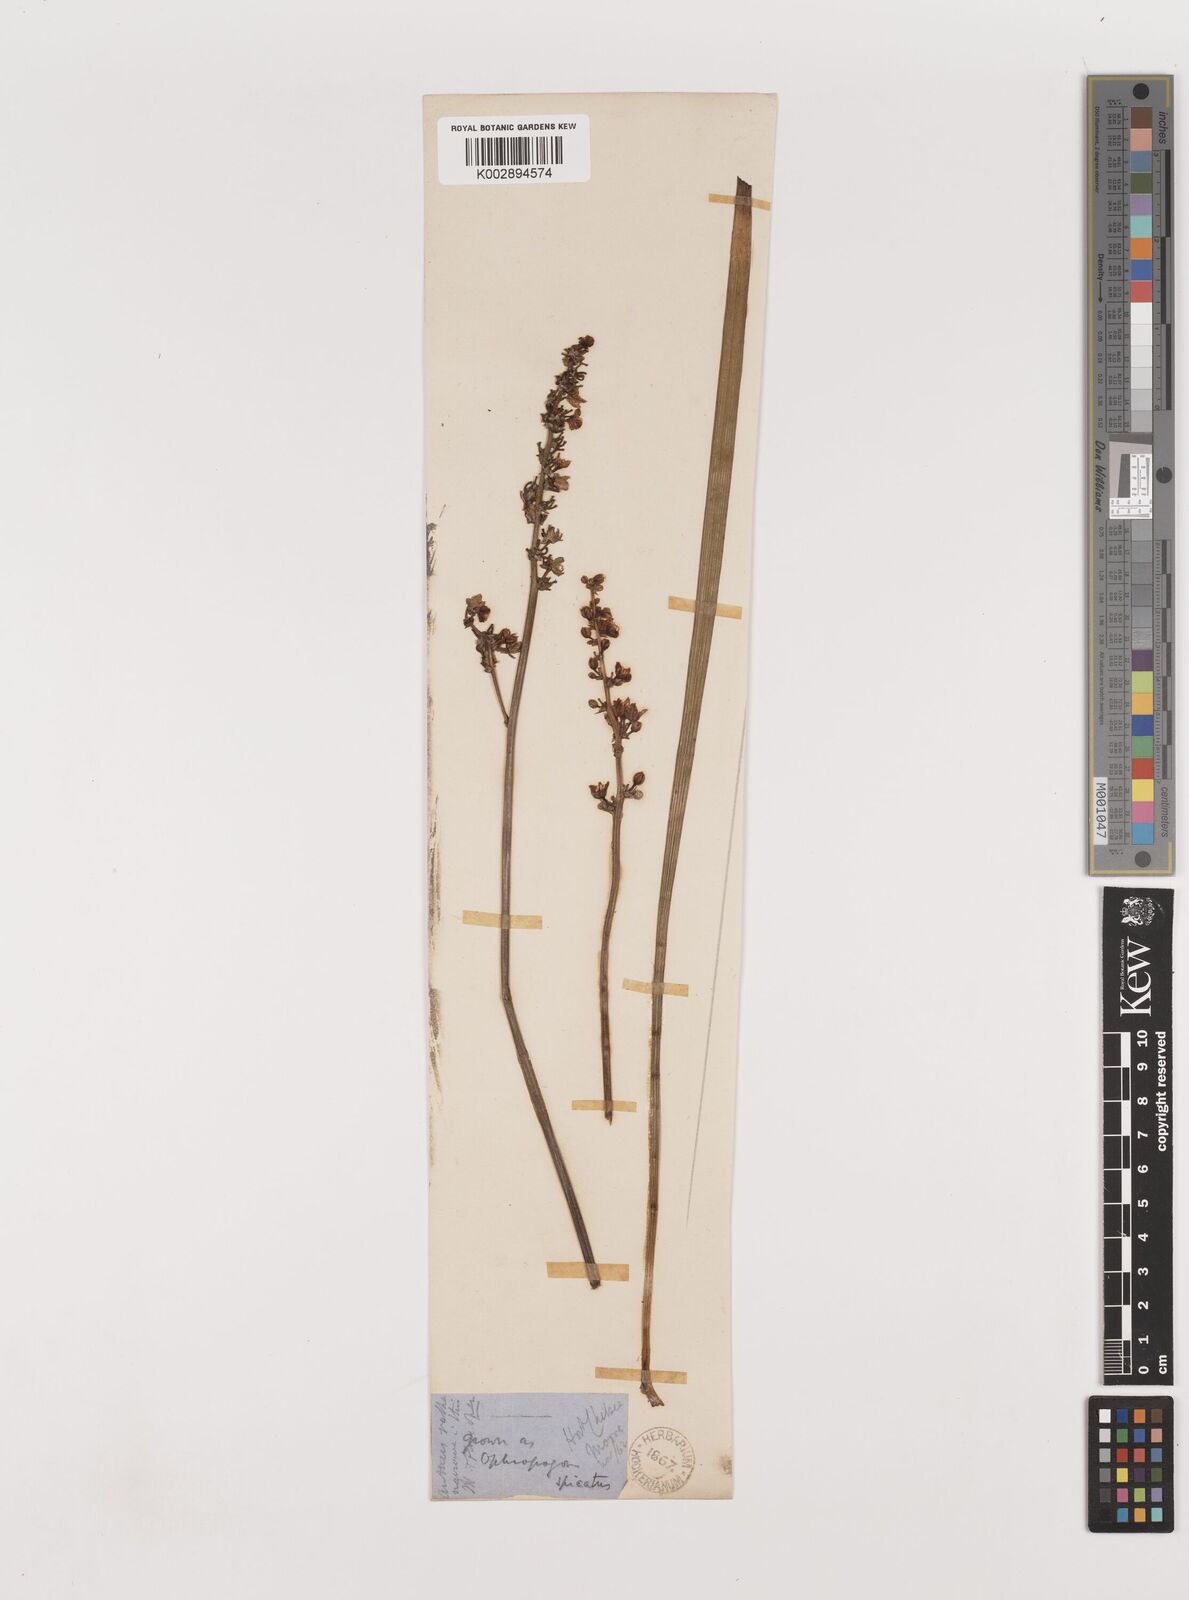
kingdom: Plantae
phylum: Tracheophyta
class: Liliopsida
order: Asparagales
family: Asparagaceae
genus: Liriope
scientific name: Liriope spicata
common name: Creeping liriope
